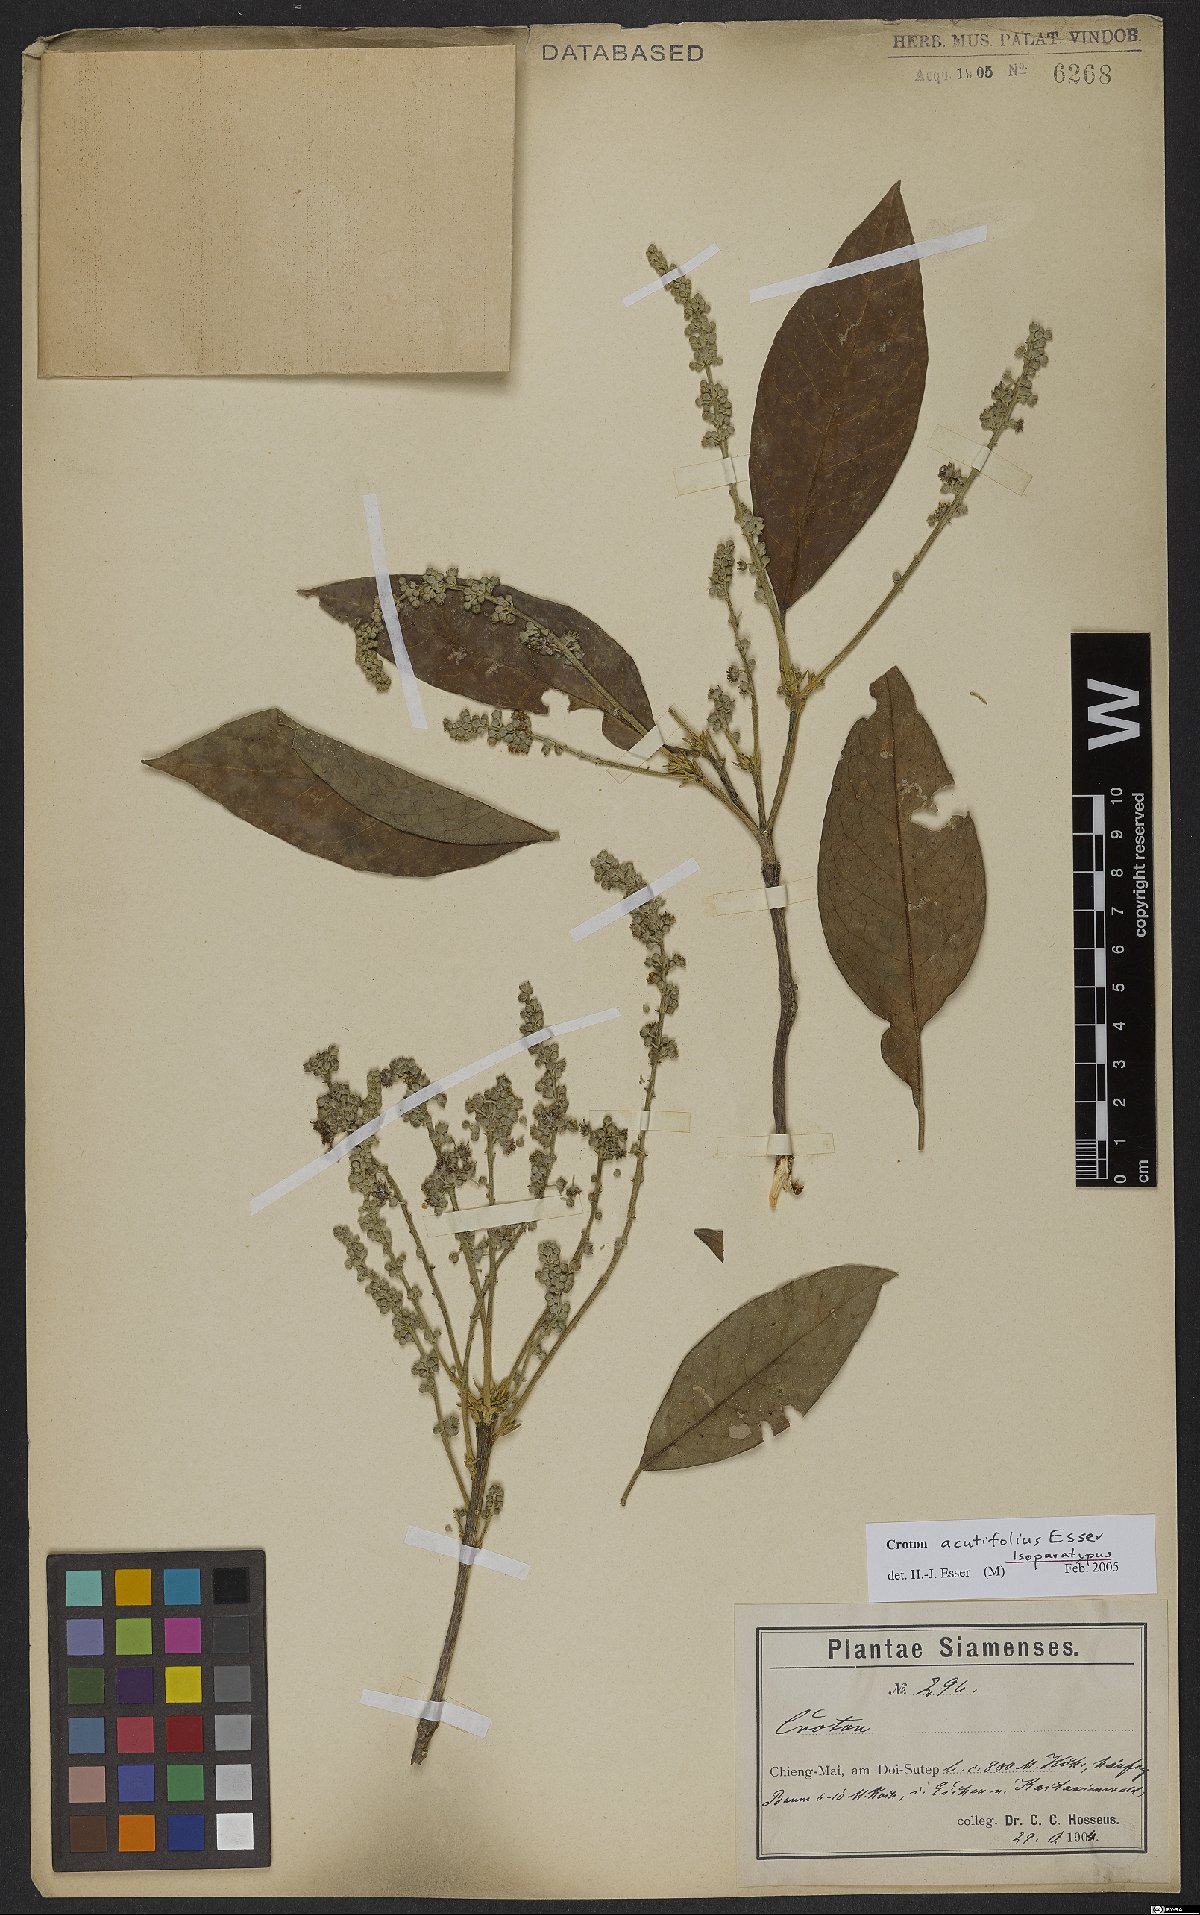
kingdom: Plantae
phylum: Tracheophyta
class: Magnoliopsida
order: Malpighiales
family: Euphorbiaceae
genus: Croton
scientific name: Croton acutifolius
